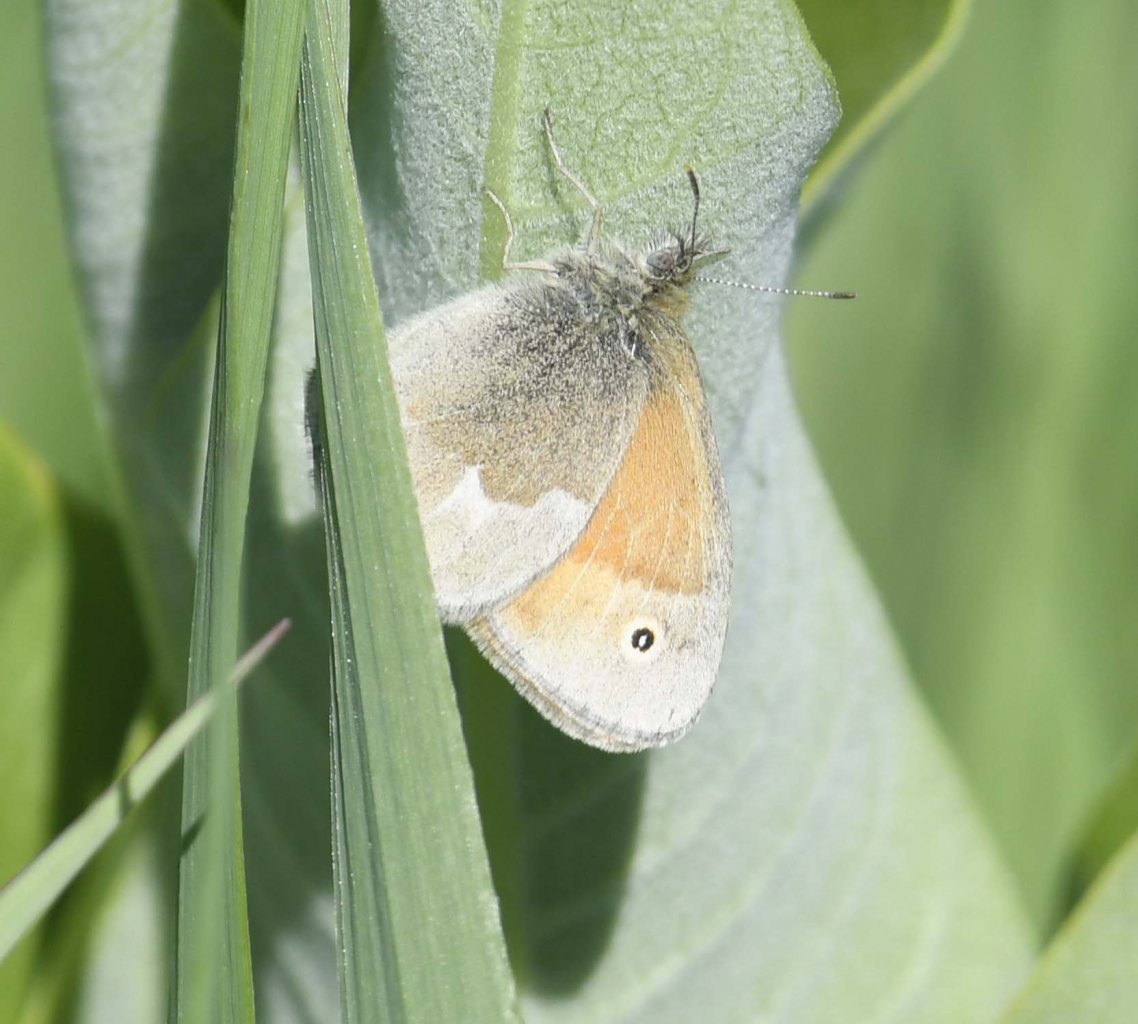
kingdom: Animalia
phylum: Arthropoda
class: Insecta
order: Lepidoptera
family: Nymphalidae
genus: Coenonympha
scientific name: Coenonympha tullia
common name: Large Heath
